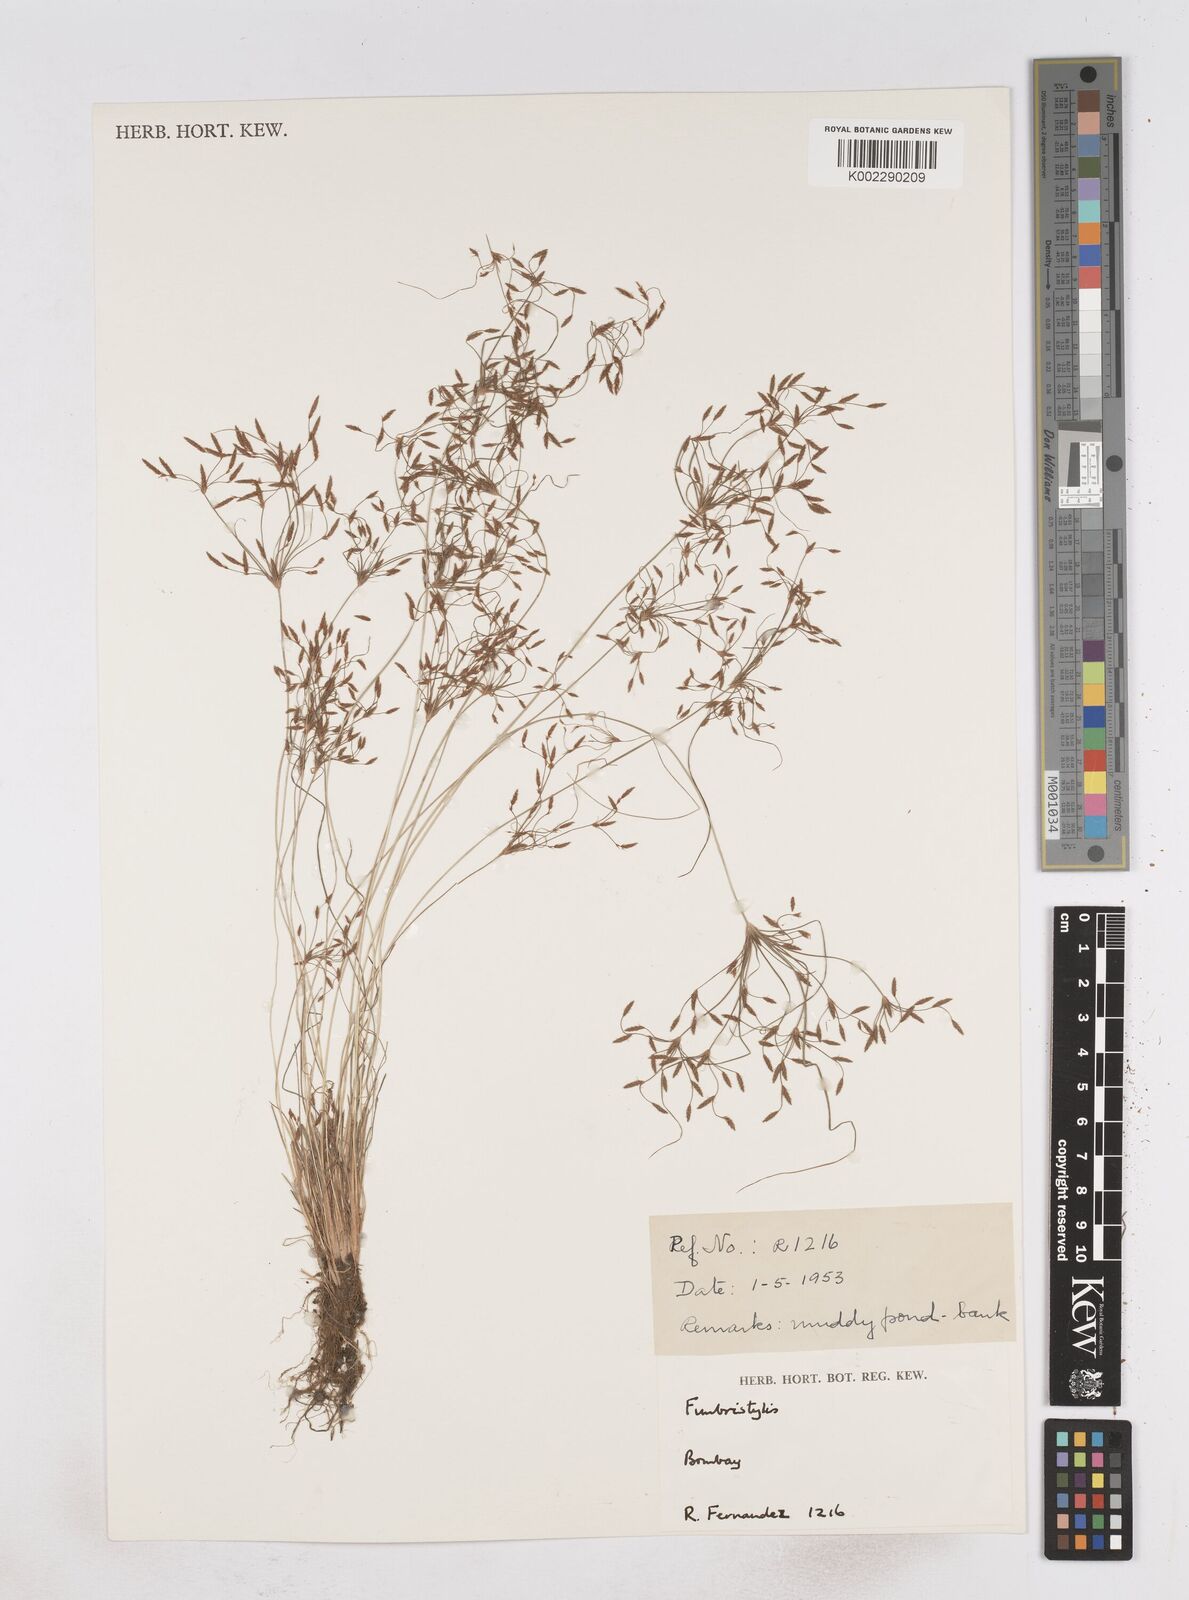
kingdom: Plantae
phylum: Tracheophyta
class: Liliopsida
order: Poales
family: Cyperaceae
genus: Fimbristylis
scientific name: Fimbristylis
